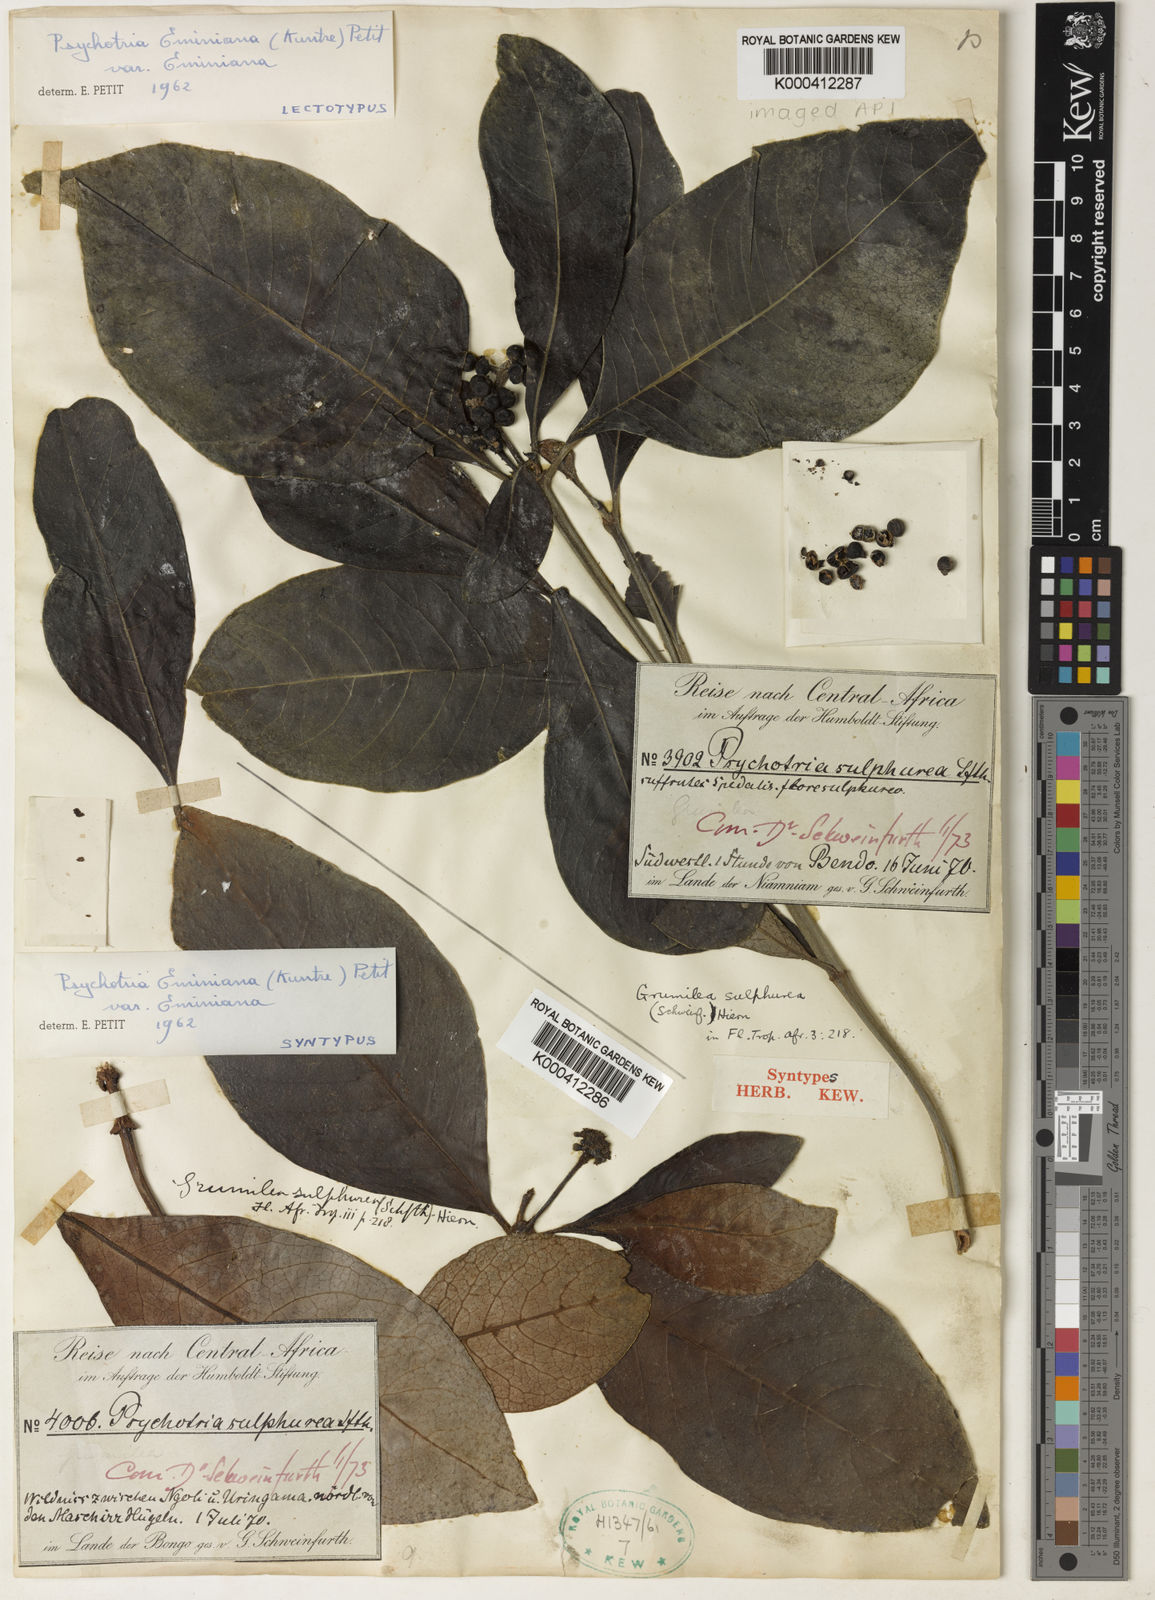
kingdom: Plantae
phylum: Tracheophyta
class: Magnoliopsida
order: Gentianales
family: Rubiaceae
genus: Psychotria
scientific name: Psychotria eminiana
